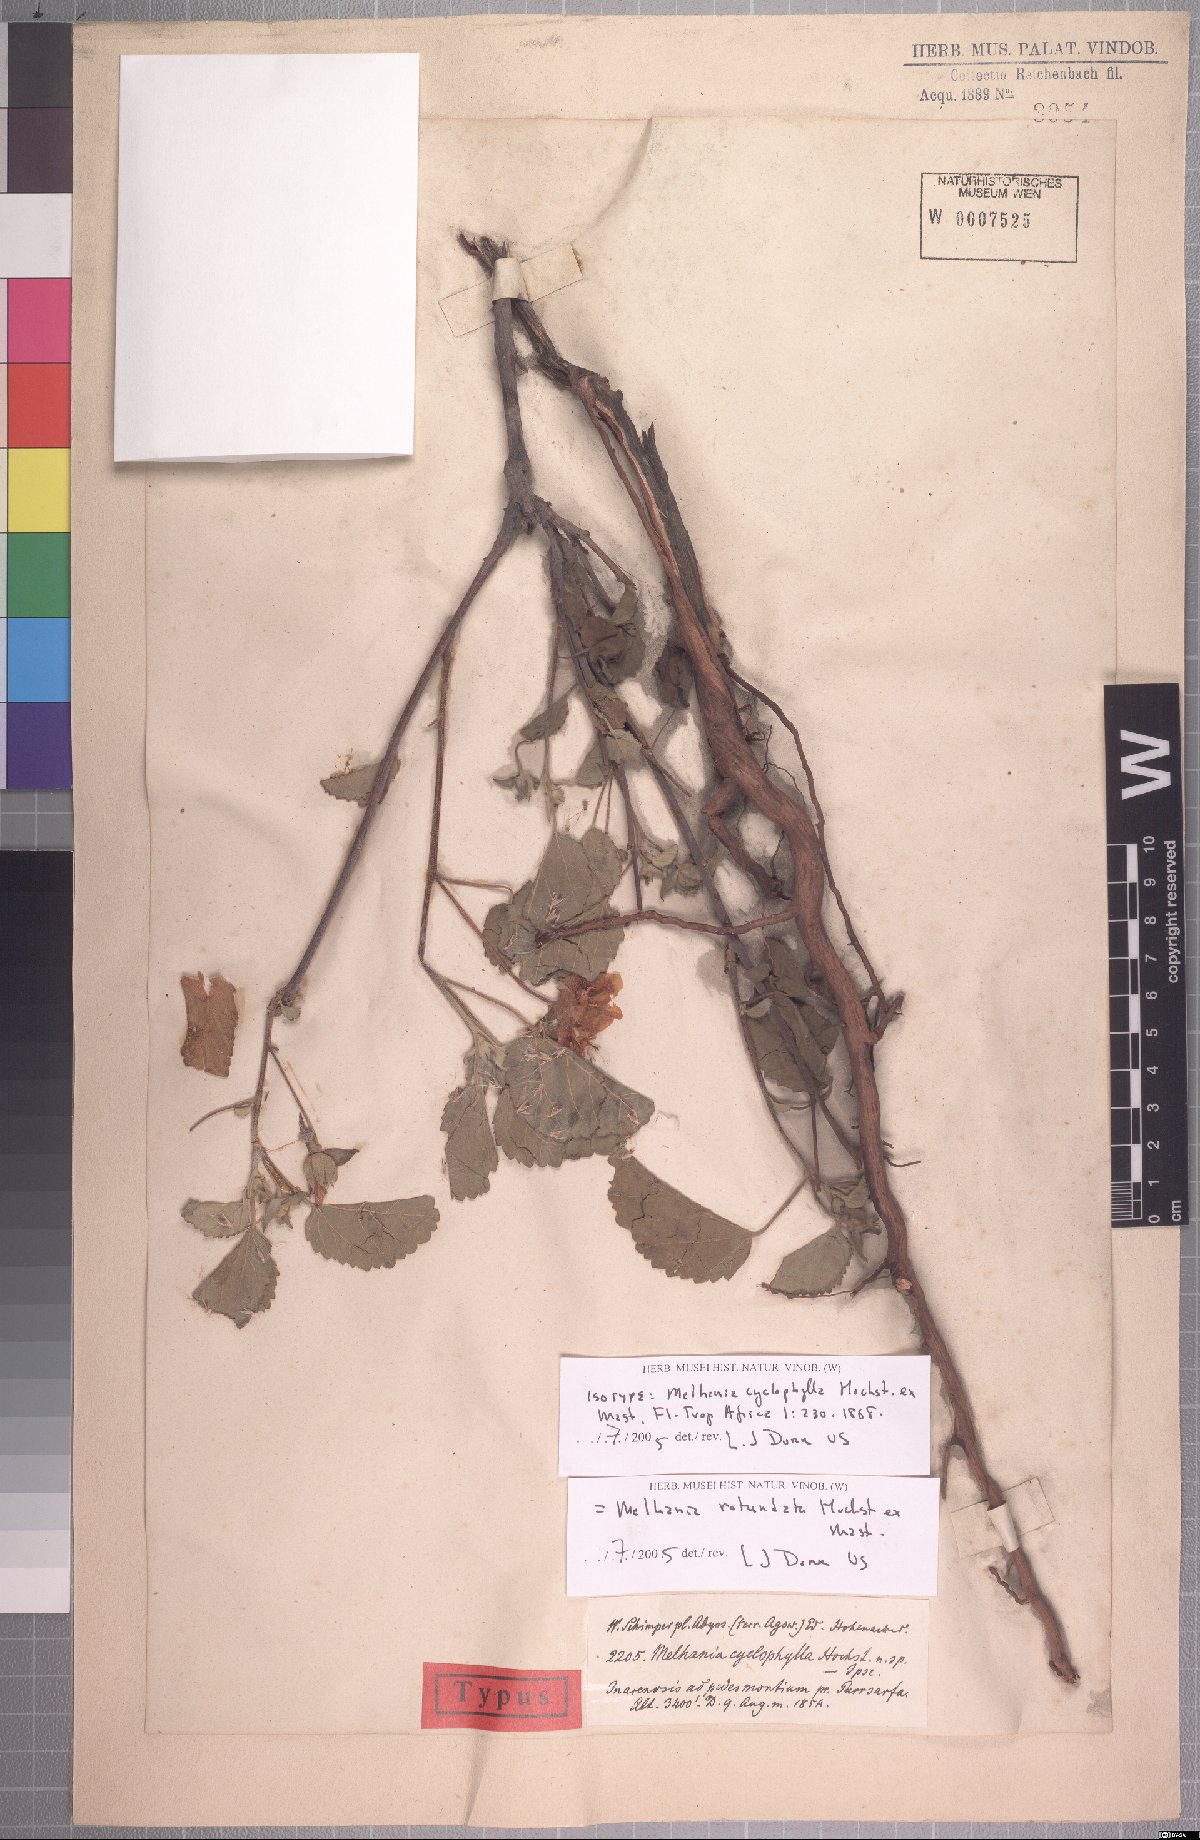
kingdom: Plantae
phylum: Tracheophyta
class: Magnoliopsida
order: Malvales
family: Malvaceae
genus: Melhania
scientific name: Melhania rotundata
